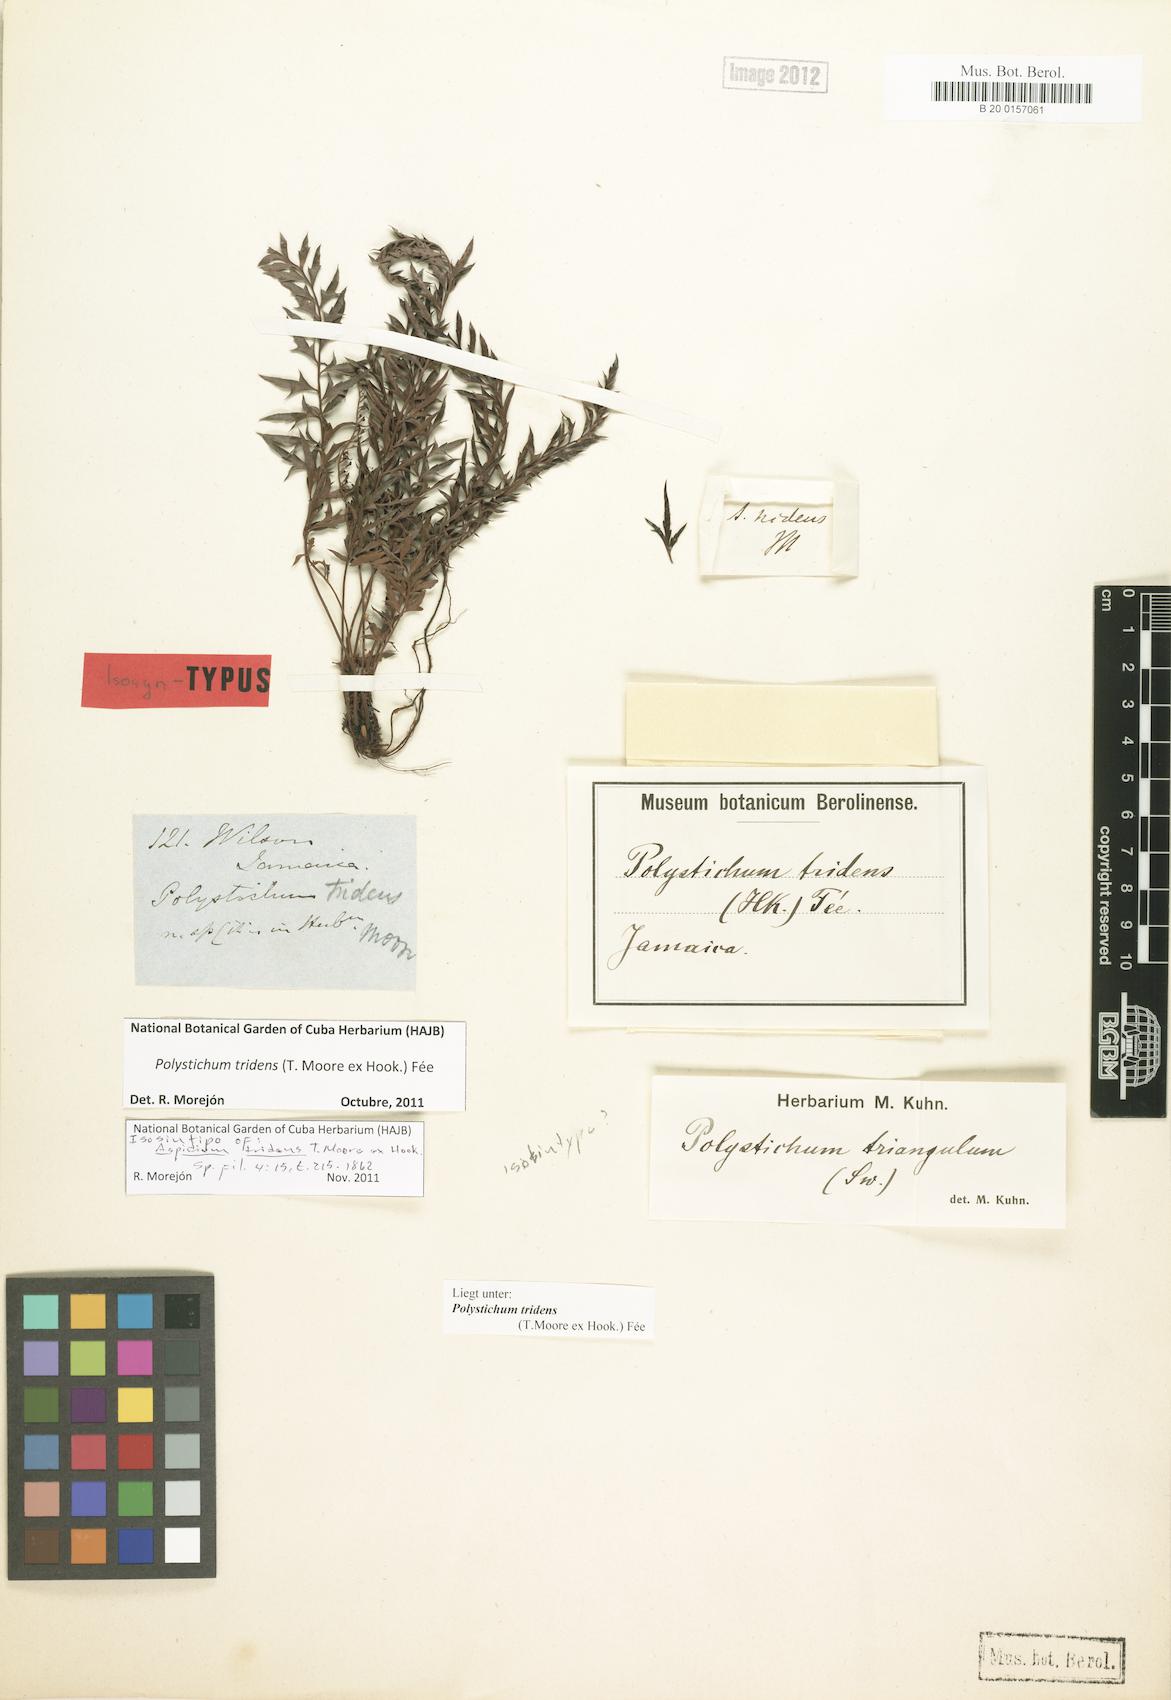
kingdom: Plantae
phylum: Tracheophyta
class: Polypodiopsida
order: Polypodiales
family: Dryopteridaceae
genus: Polystichum
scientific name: Polystichum tridens
